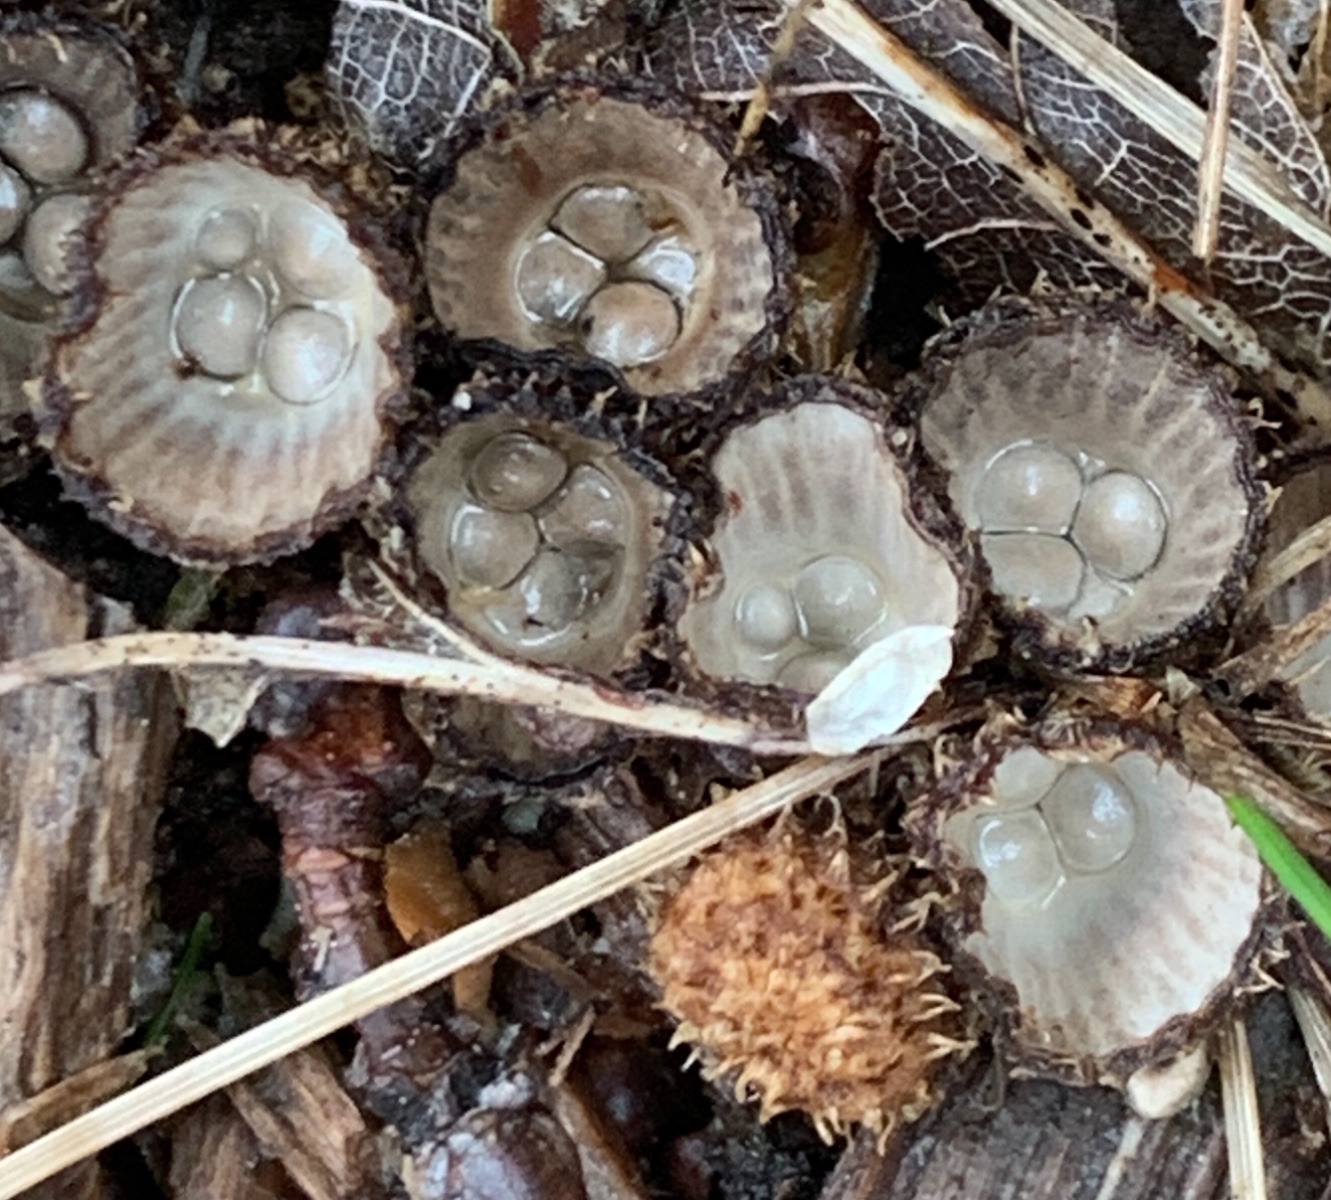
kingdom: Fungi
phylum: Basidiomycota
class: Agaricomycetes
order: Agaricales
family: Agaricaceae
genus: Cyathus
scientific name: Cyathus striatus
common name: stribet redesvamp
